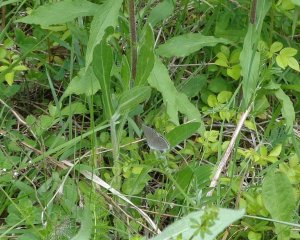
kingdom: Animalia
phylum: Arthropoda
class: Insecta
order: Lepidoptera
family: Lycaenidae
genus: Glaucopsyche
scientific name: Glaucopsyche lygdamus
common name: Silvery Blue
